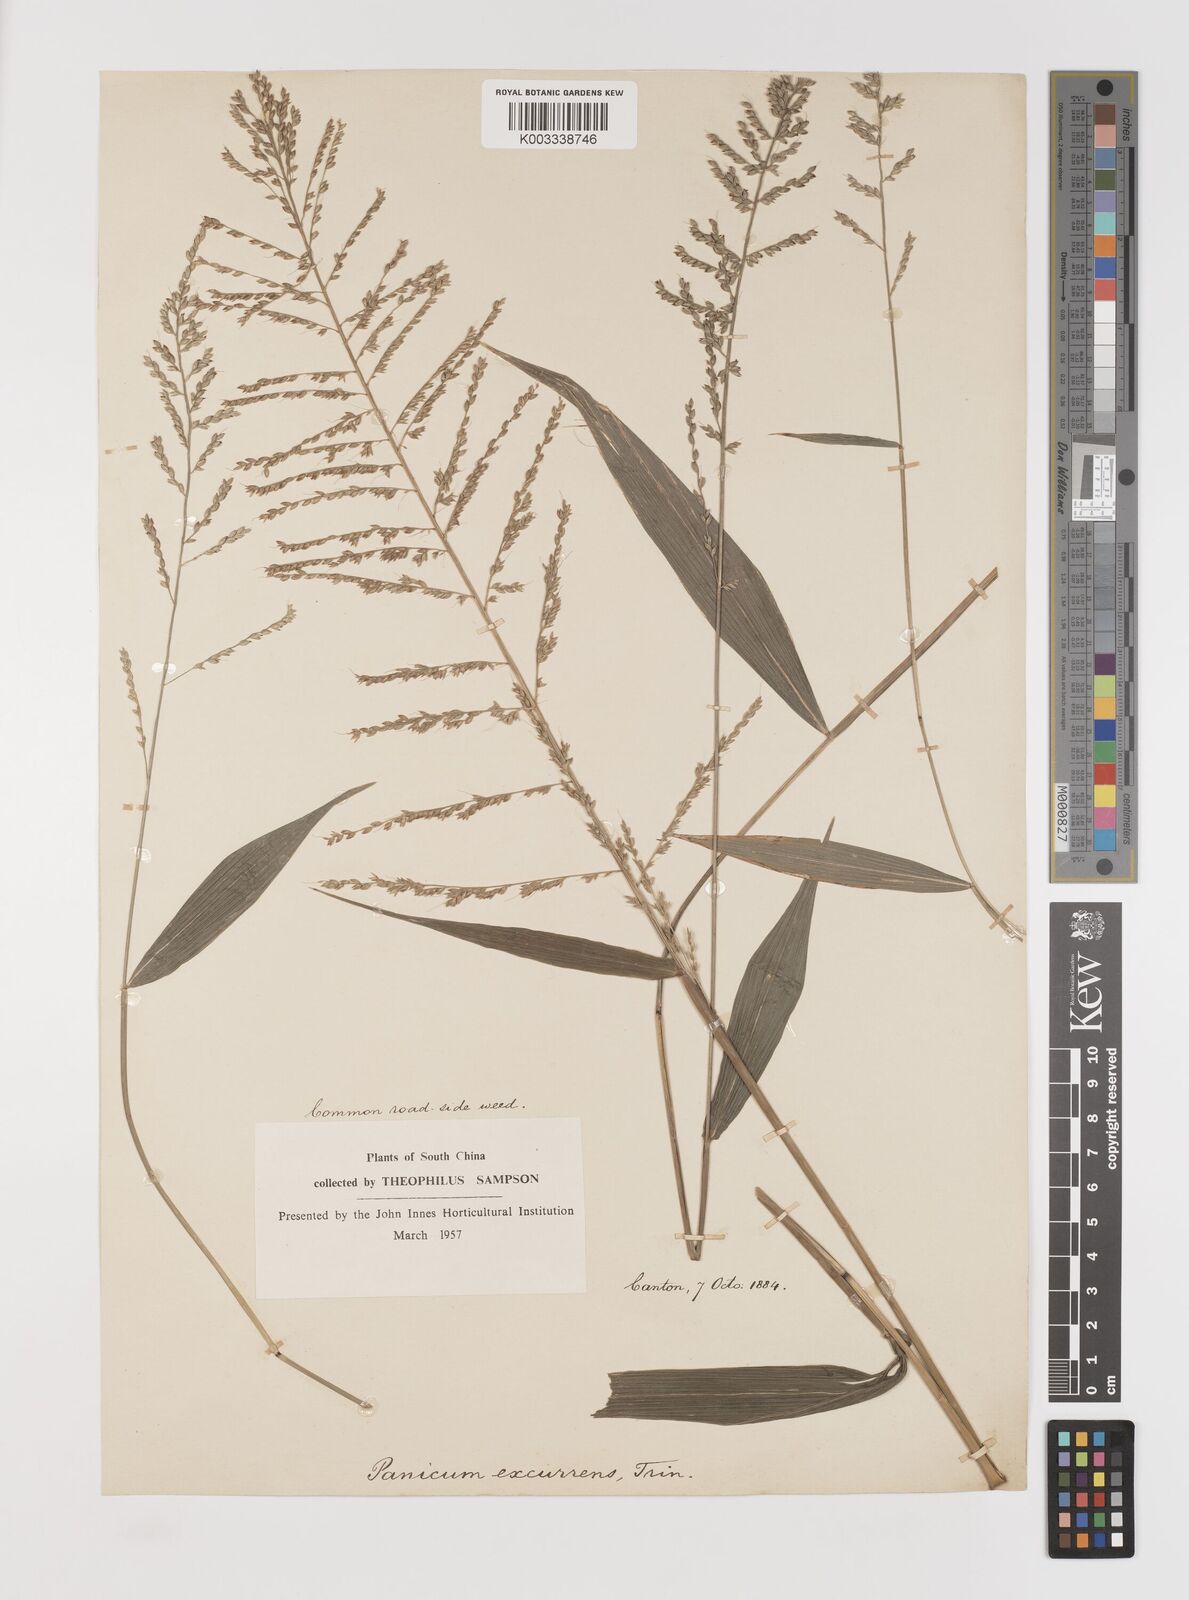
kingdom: Plantae
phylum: Tracheophyta
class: Liliopsida
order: Poales
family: Poaceae
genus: Setaria
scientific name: Setaria plicata
